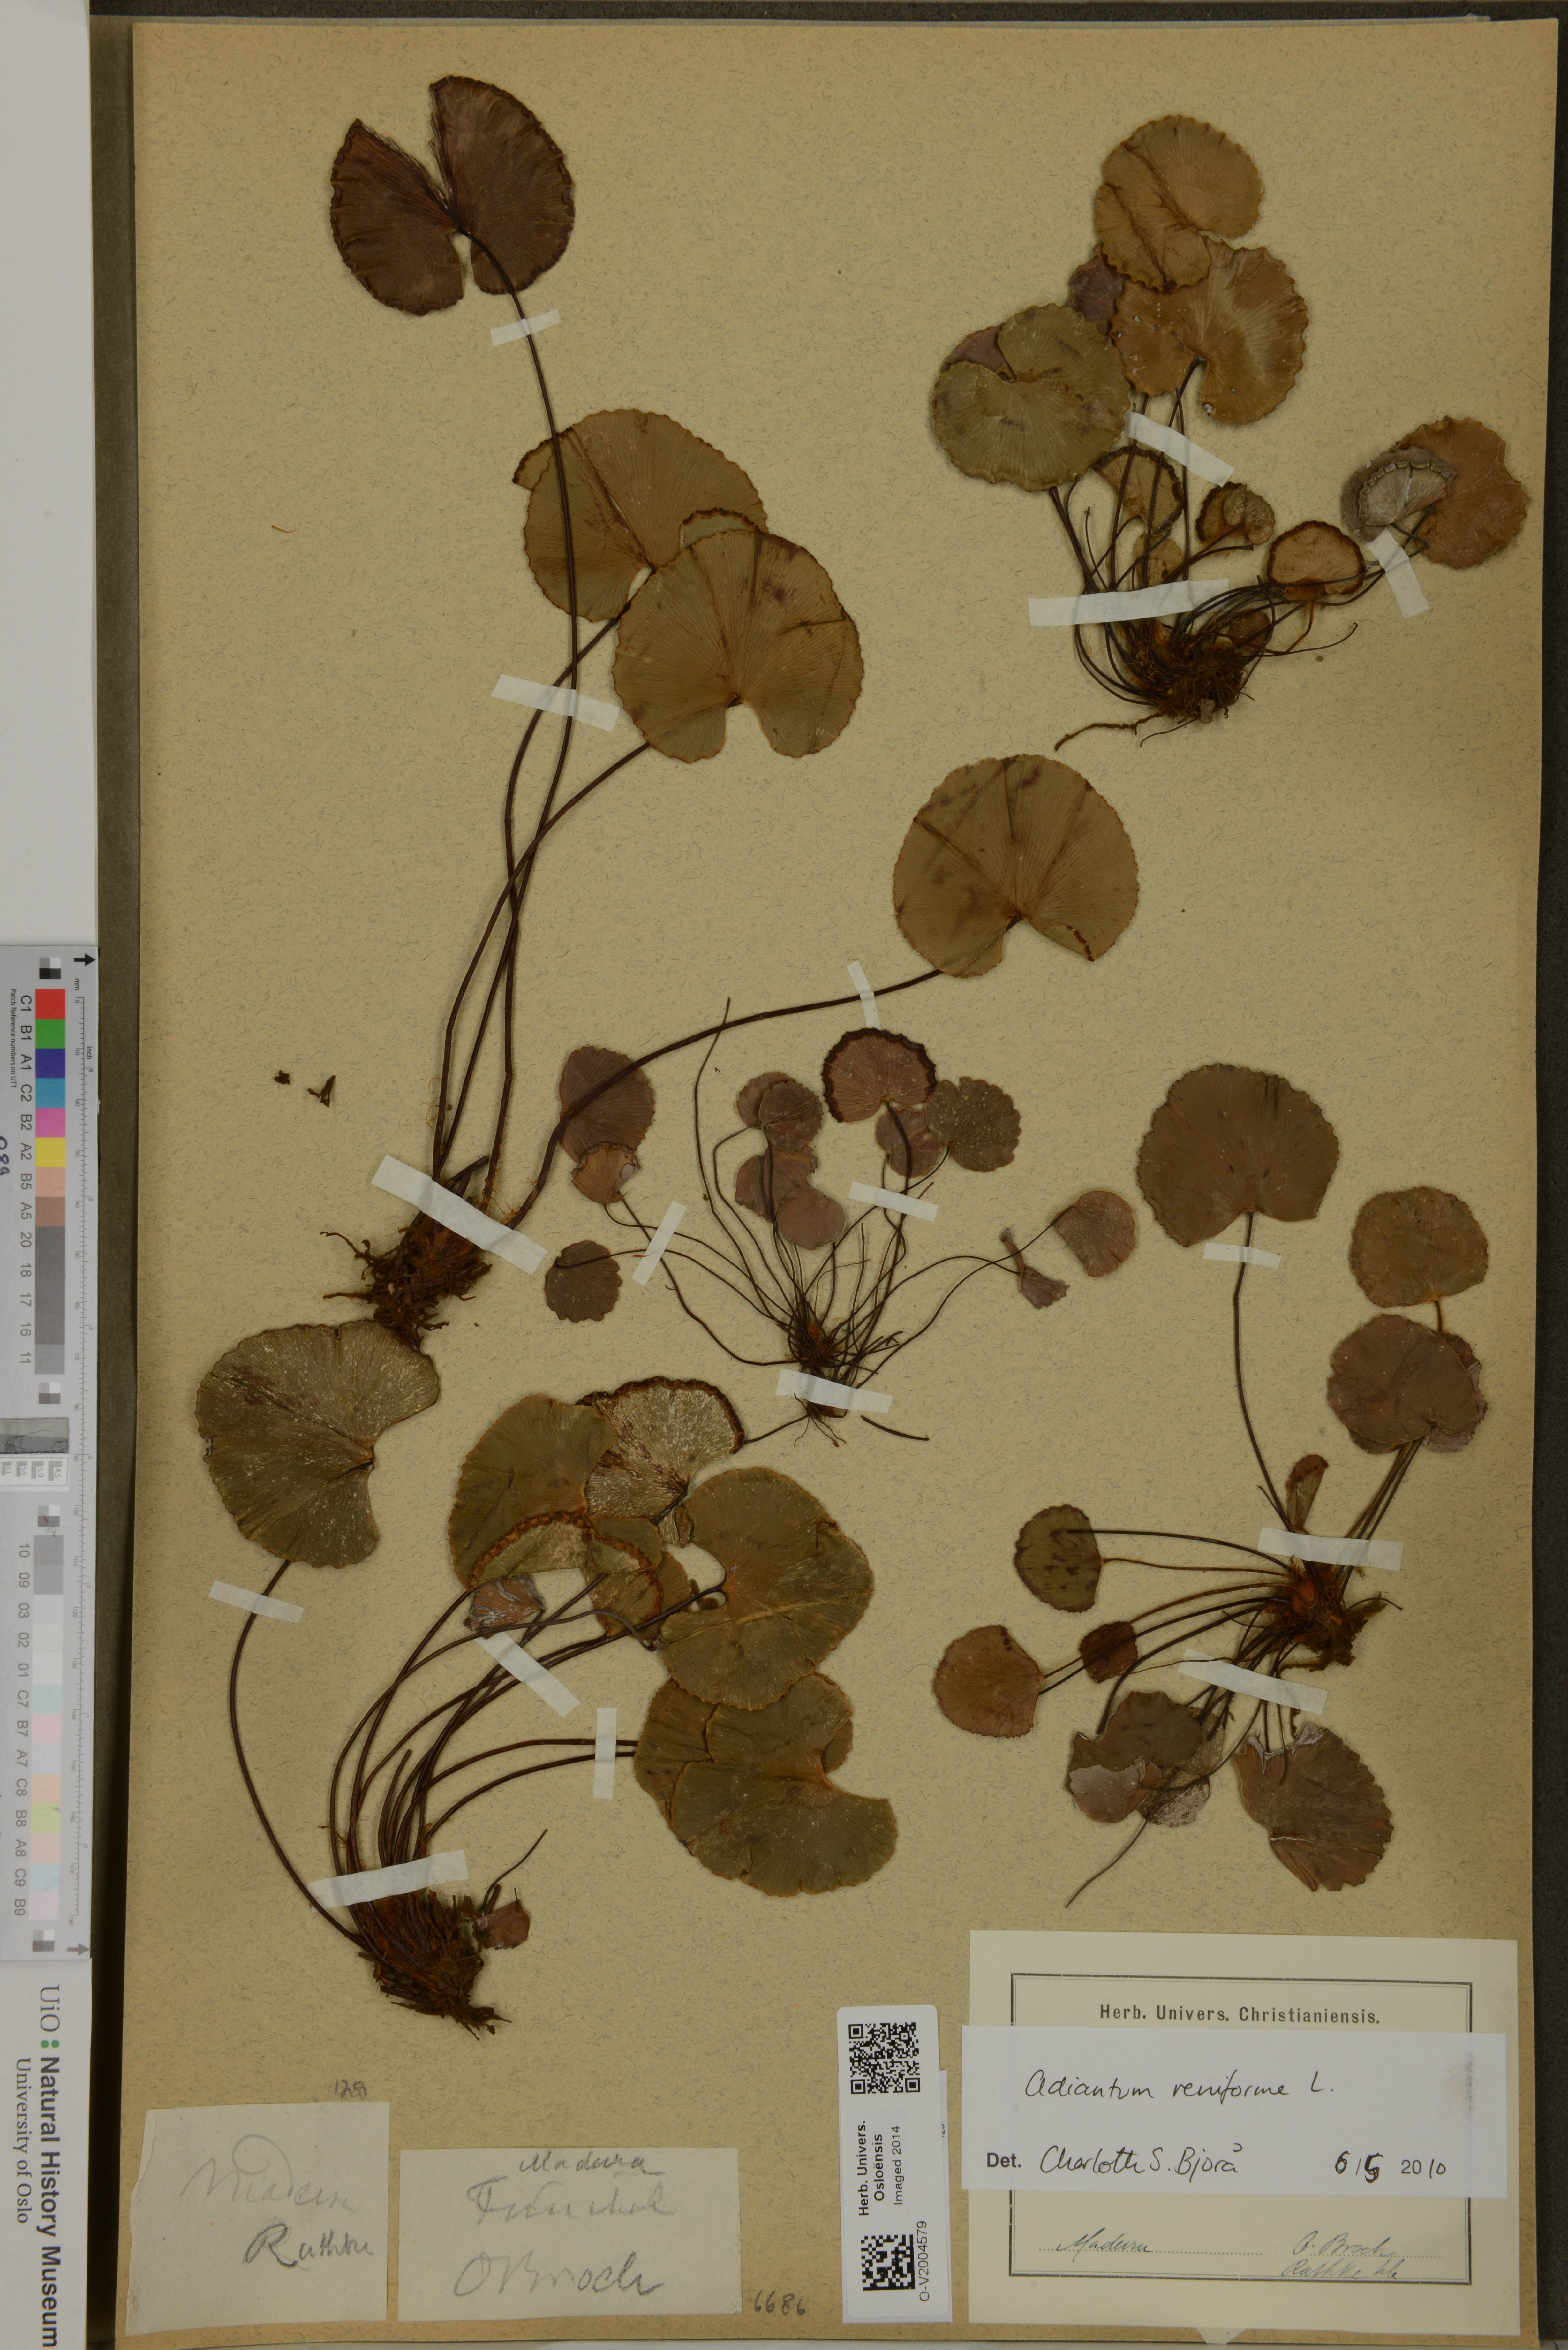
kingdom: Plantae
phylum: Tracheophyta
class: Polypodiopsida
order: Polypodiales
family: Pteridaceae
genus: Adiantum
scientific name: Adiantum reniforme
